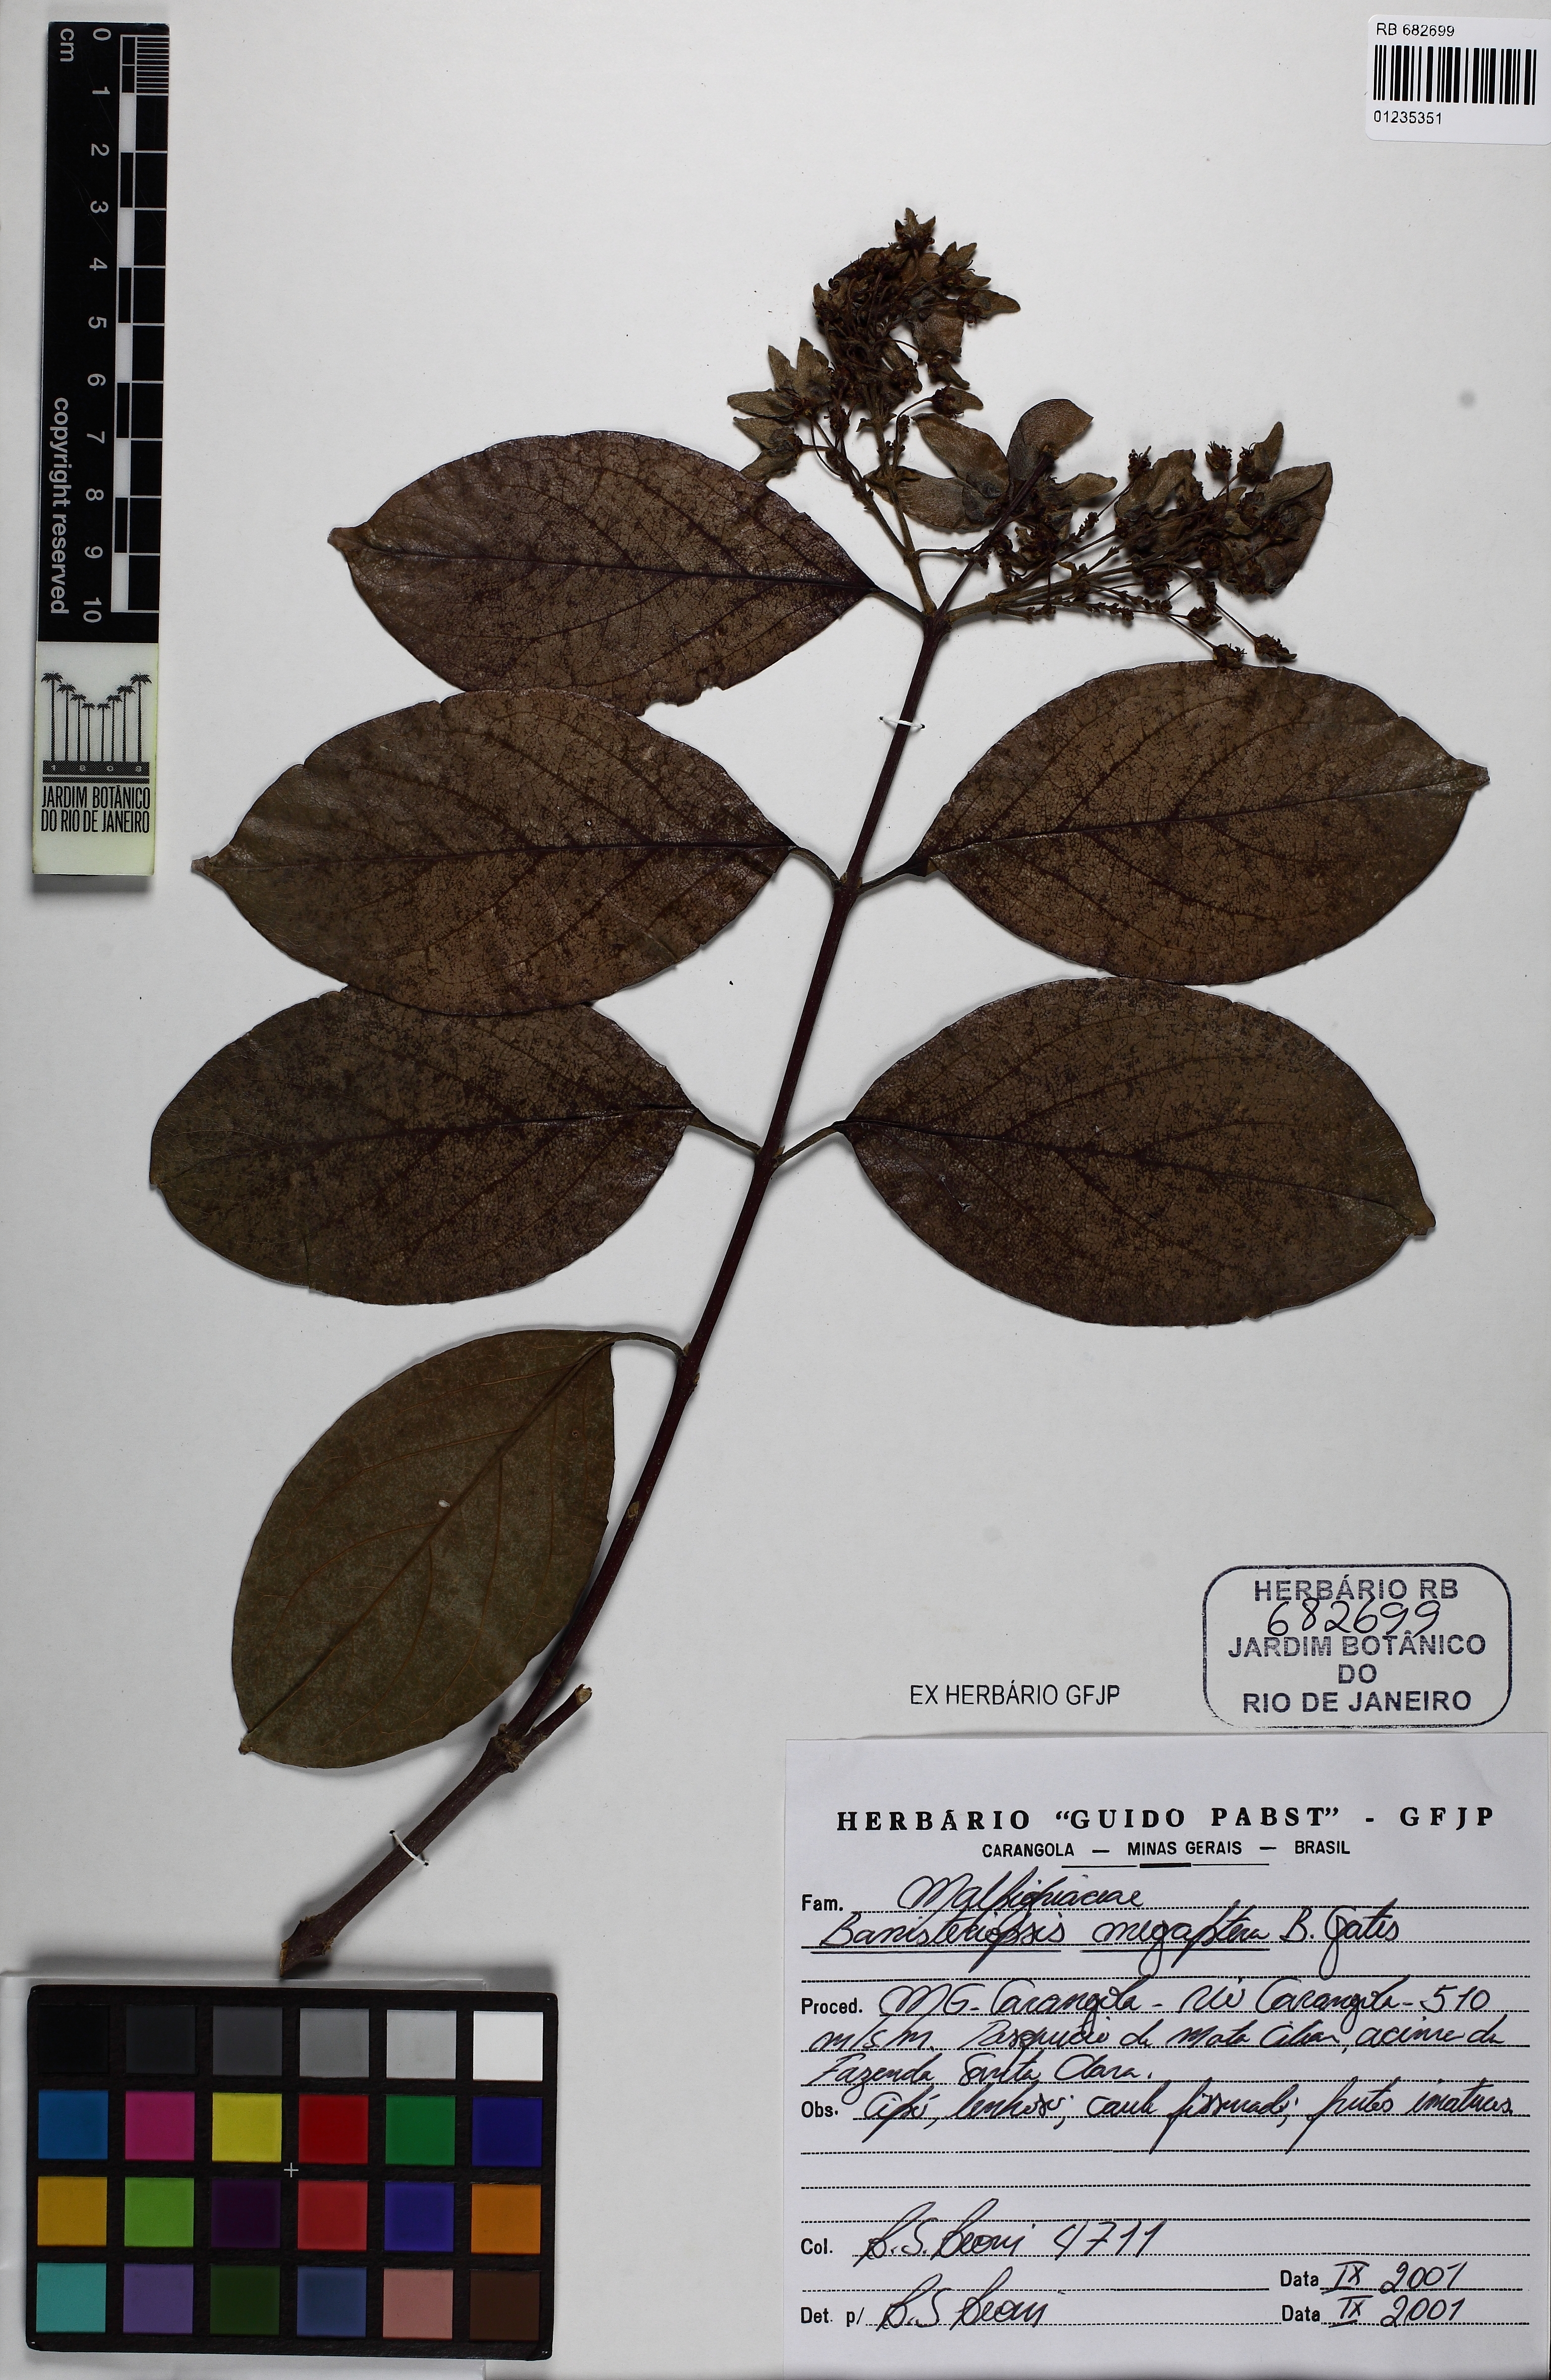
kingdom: Plantae
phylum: Tracheophyta
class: Magnoliopsida
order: Malpighiales
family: Malpighiaceae
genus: Bronwenia
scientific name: Bronwenia megaptera
